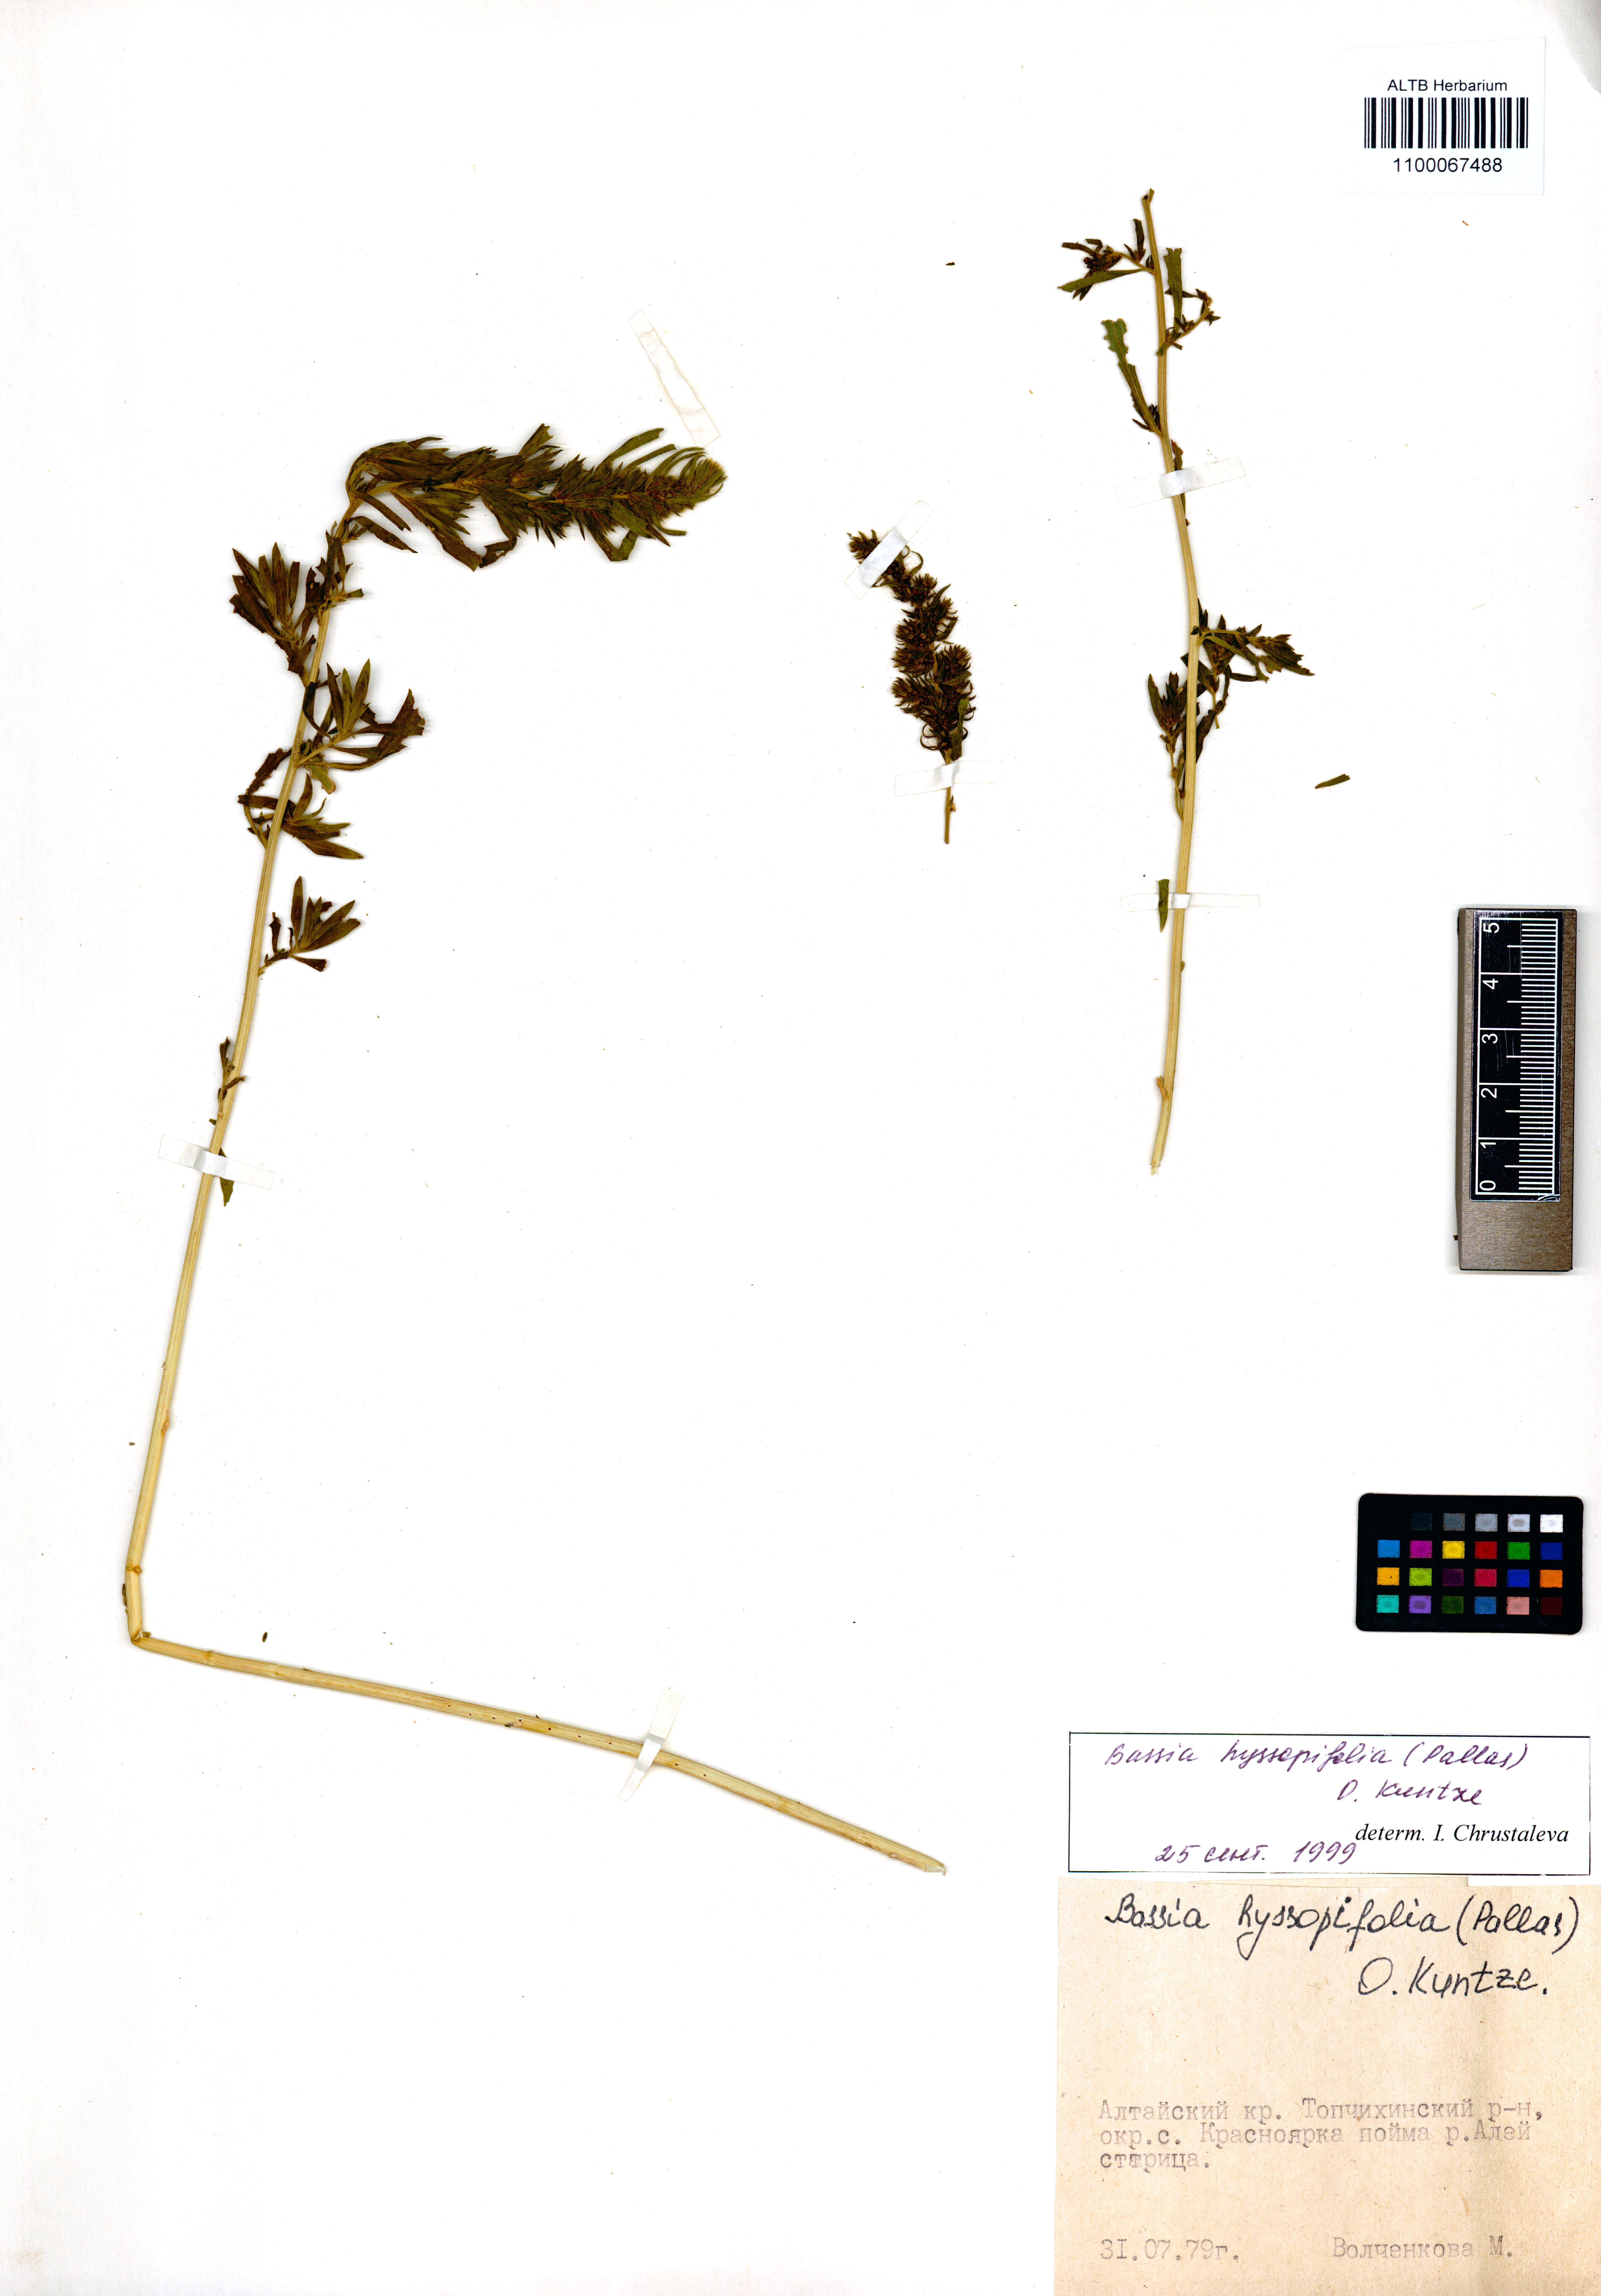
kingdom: Plantae
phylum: Tracheophyta
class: Magnoliopsida
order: Caryophyllales
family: Amaranthaceae
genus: Bassia
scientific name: Bassia hyssopifolia
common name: Fivehorn smotherweed
